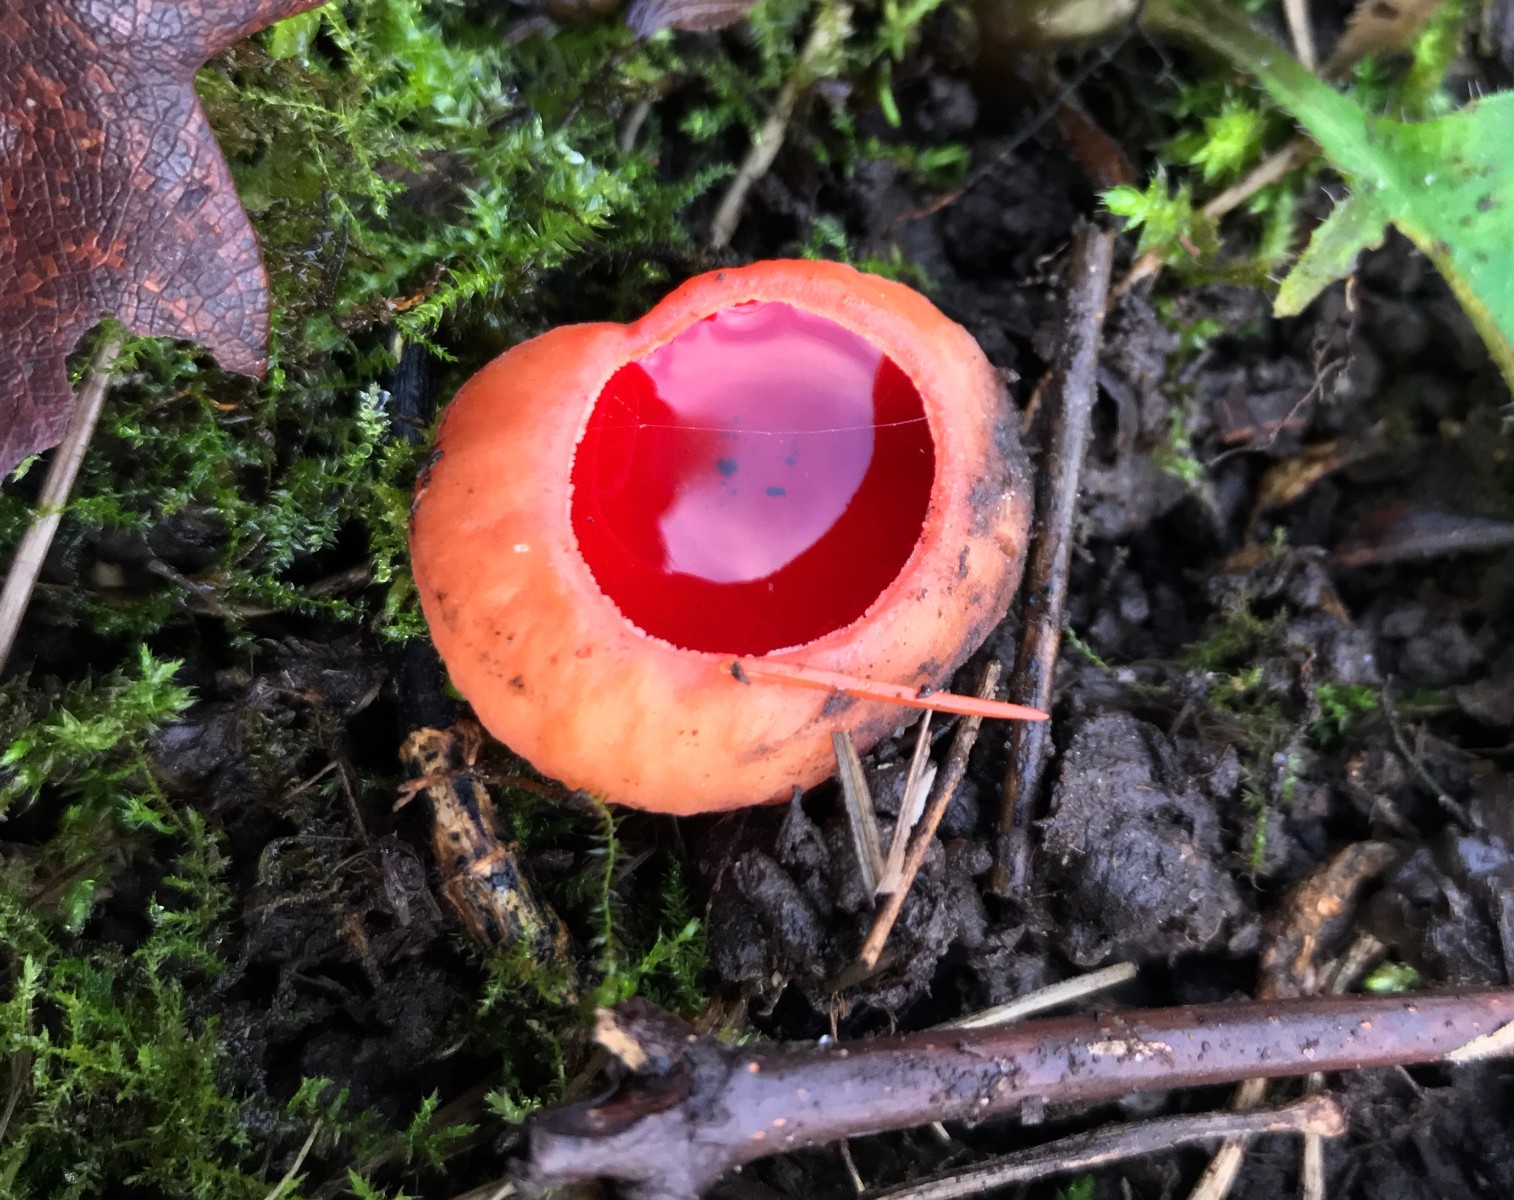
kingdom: Fungi
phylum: Ascomycota
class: Pezizomycetes
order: Pezizales
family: Sarcoscyphaceae
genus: Sarcoscypha
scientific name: Sarcoscypha austriaca
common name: krølhåret pragtbæger
